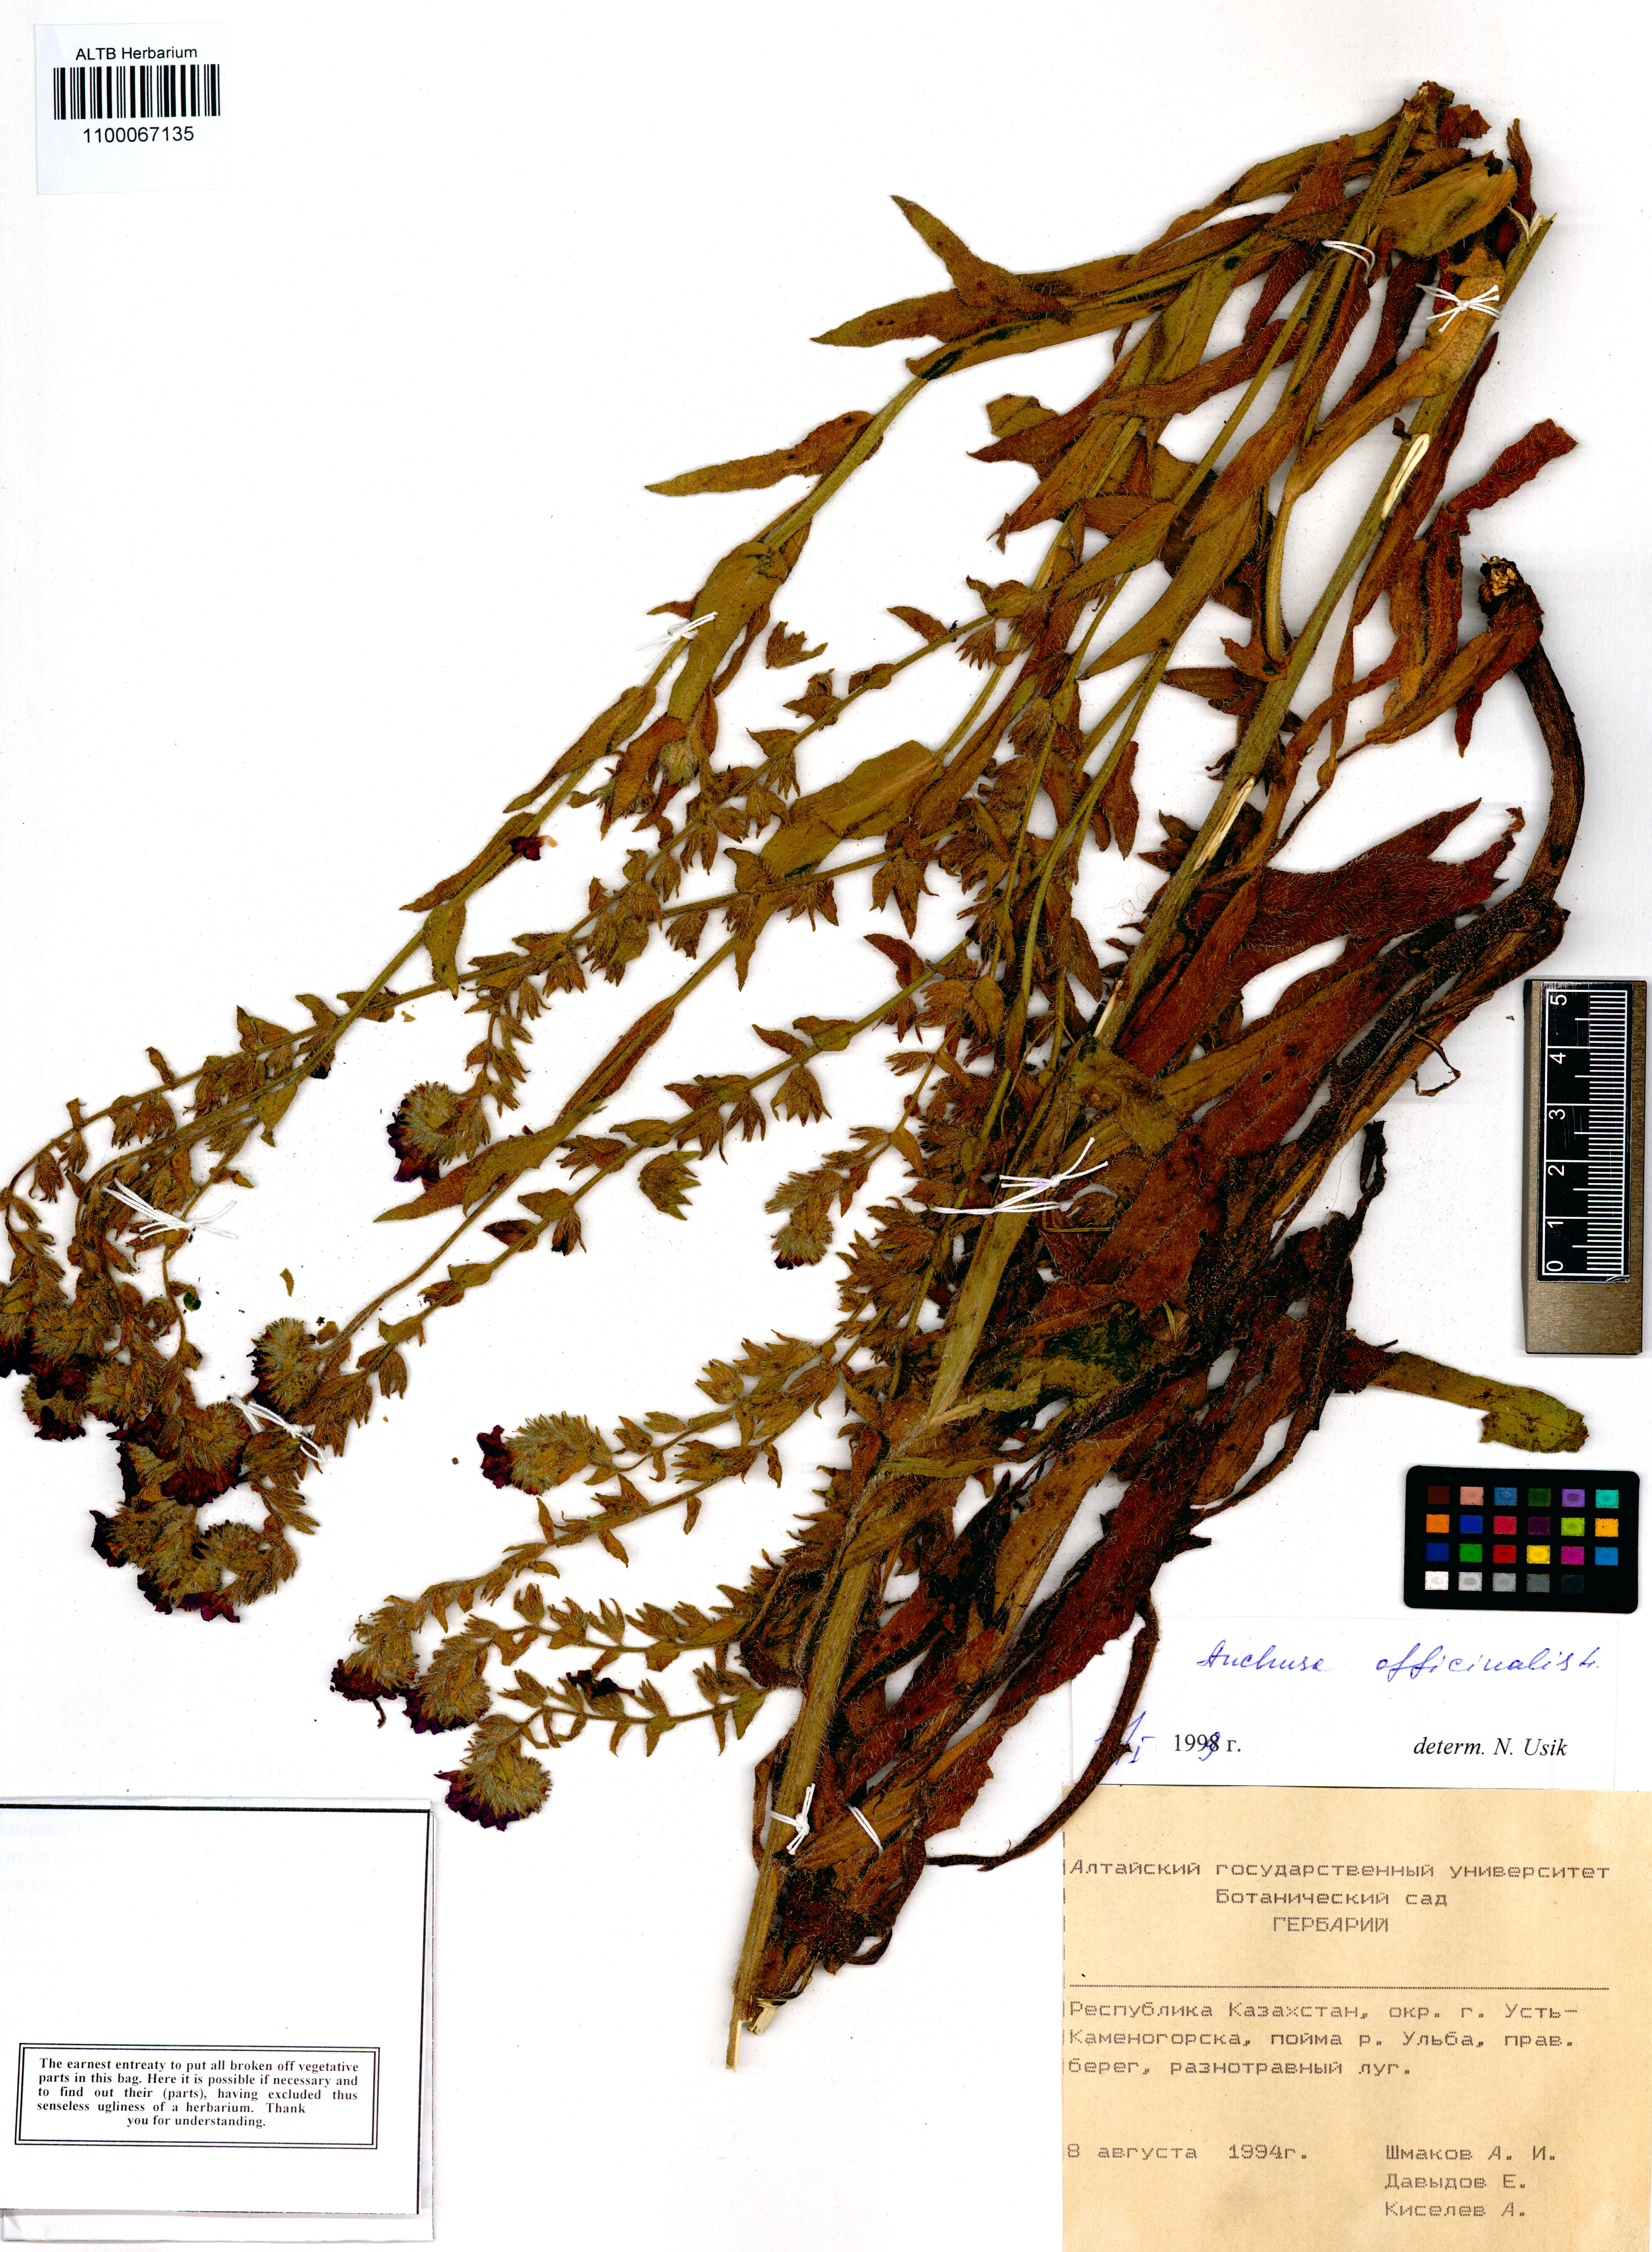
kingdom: Plantae
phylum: Tracheophyta
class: Magnoliopsida
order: Boraginales
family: Boraginaceae
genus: Anchusa
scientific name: Anchusa officinalis
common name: Alkanet
